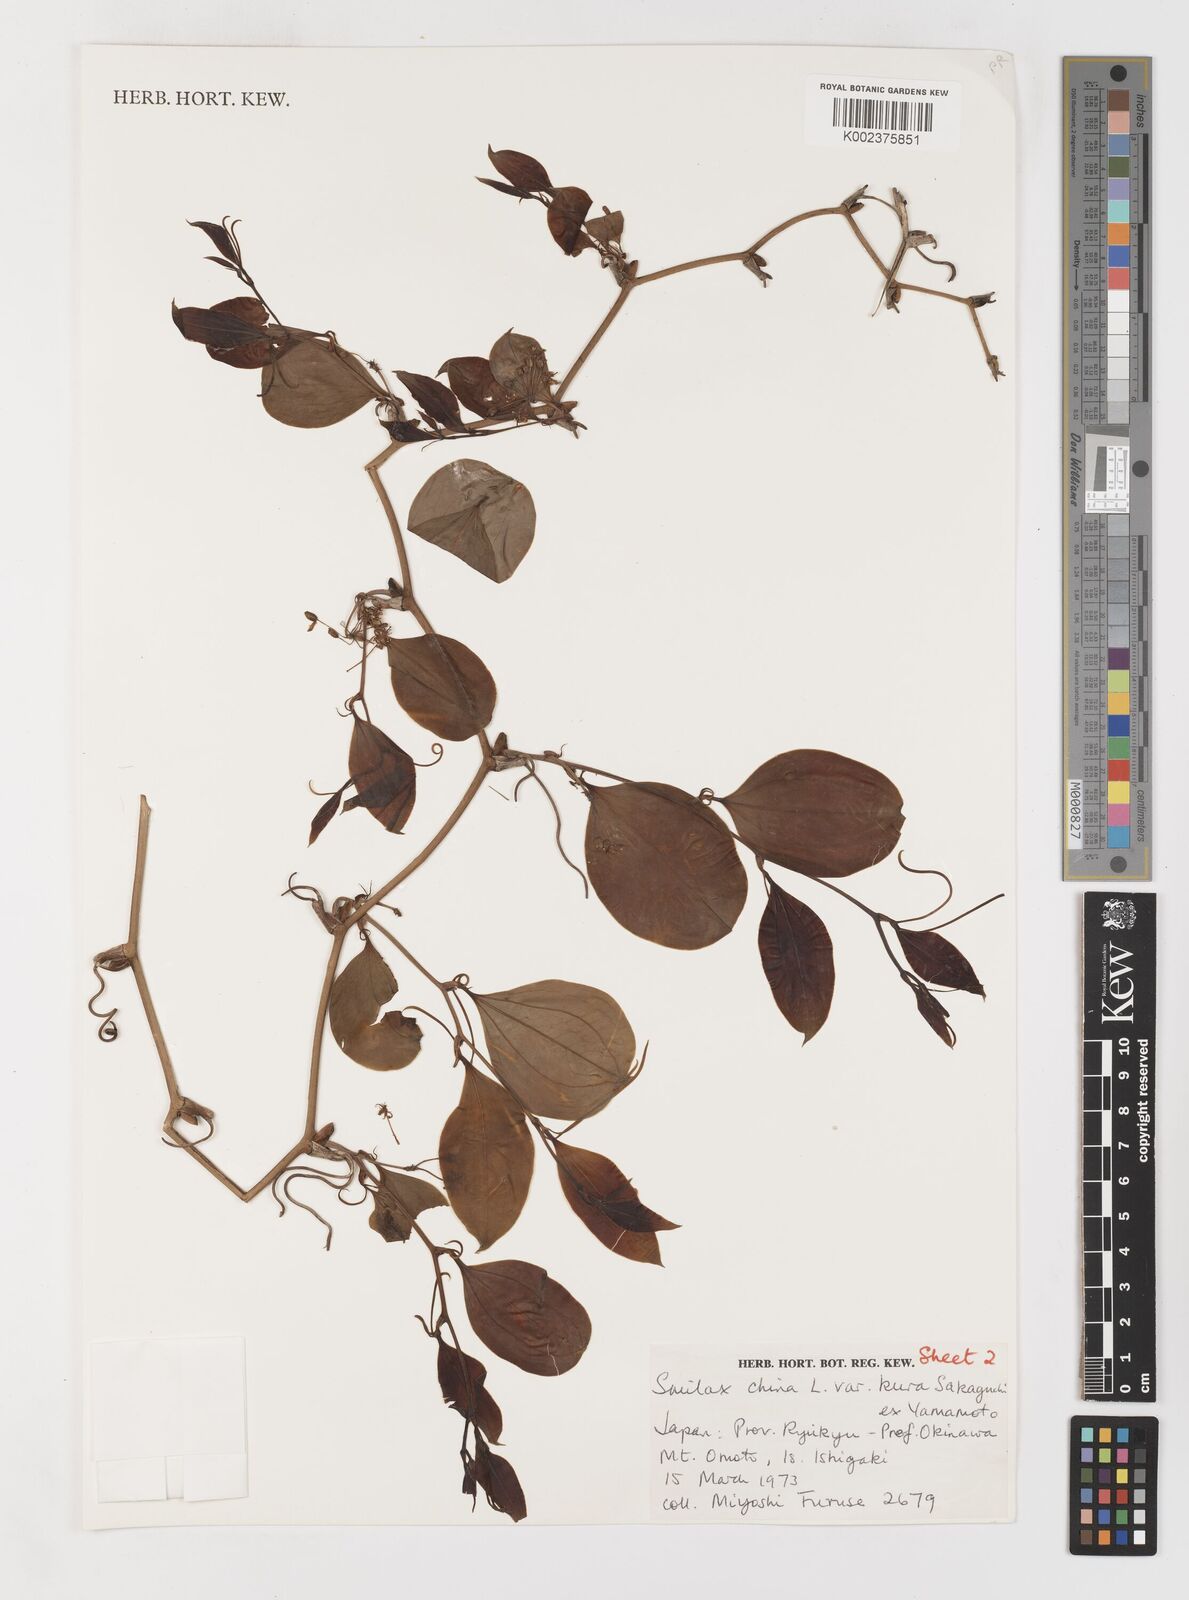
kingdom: Plantae
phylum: Tracheophyta
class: Liliopsida
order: Liliales
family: Smilacaceae
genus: Smilax
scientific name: Smilax china
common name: Chinaroot
